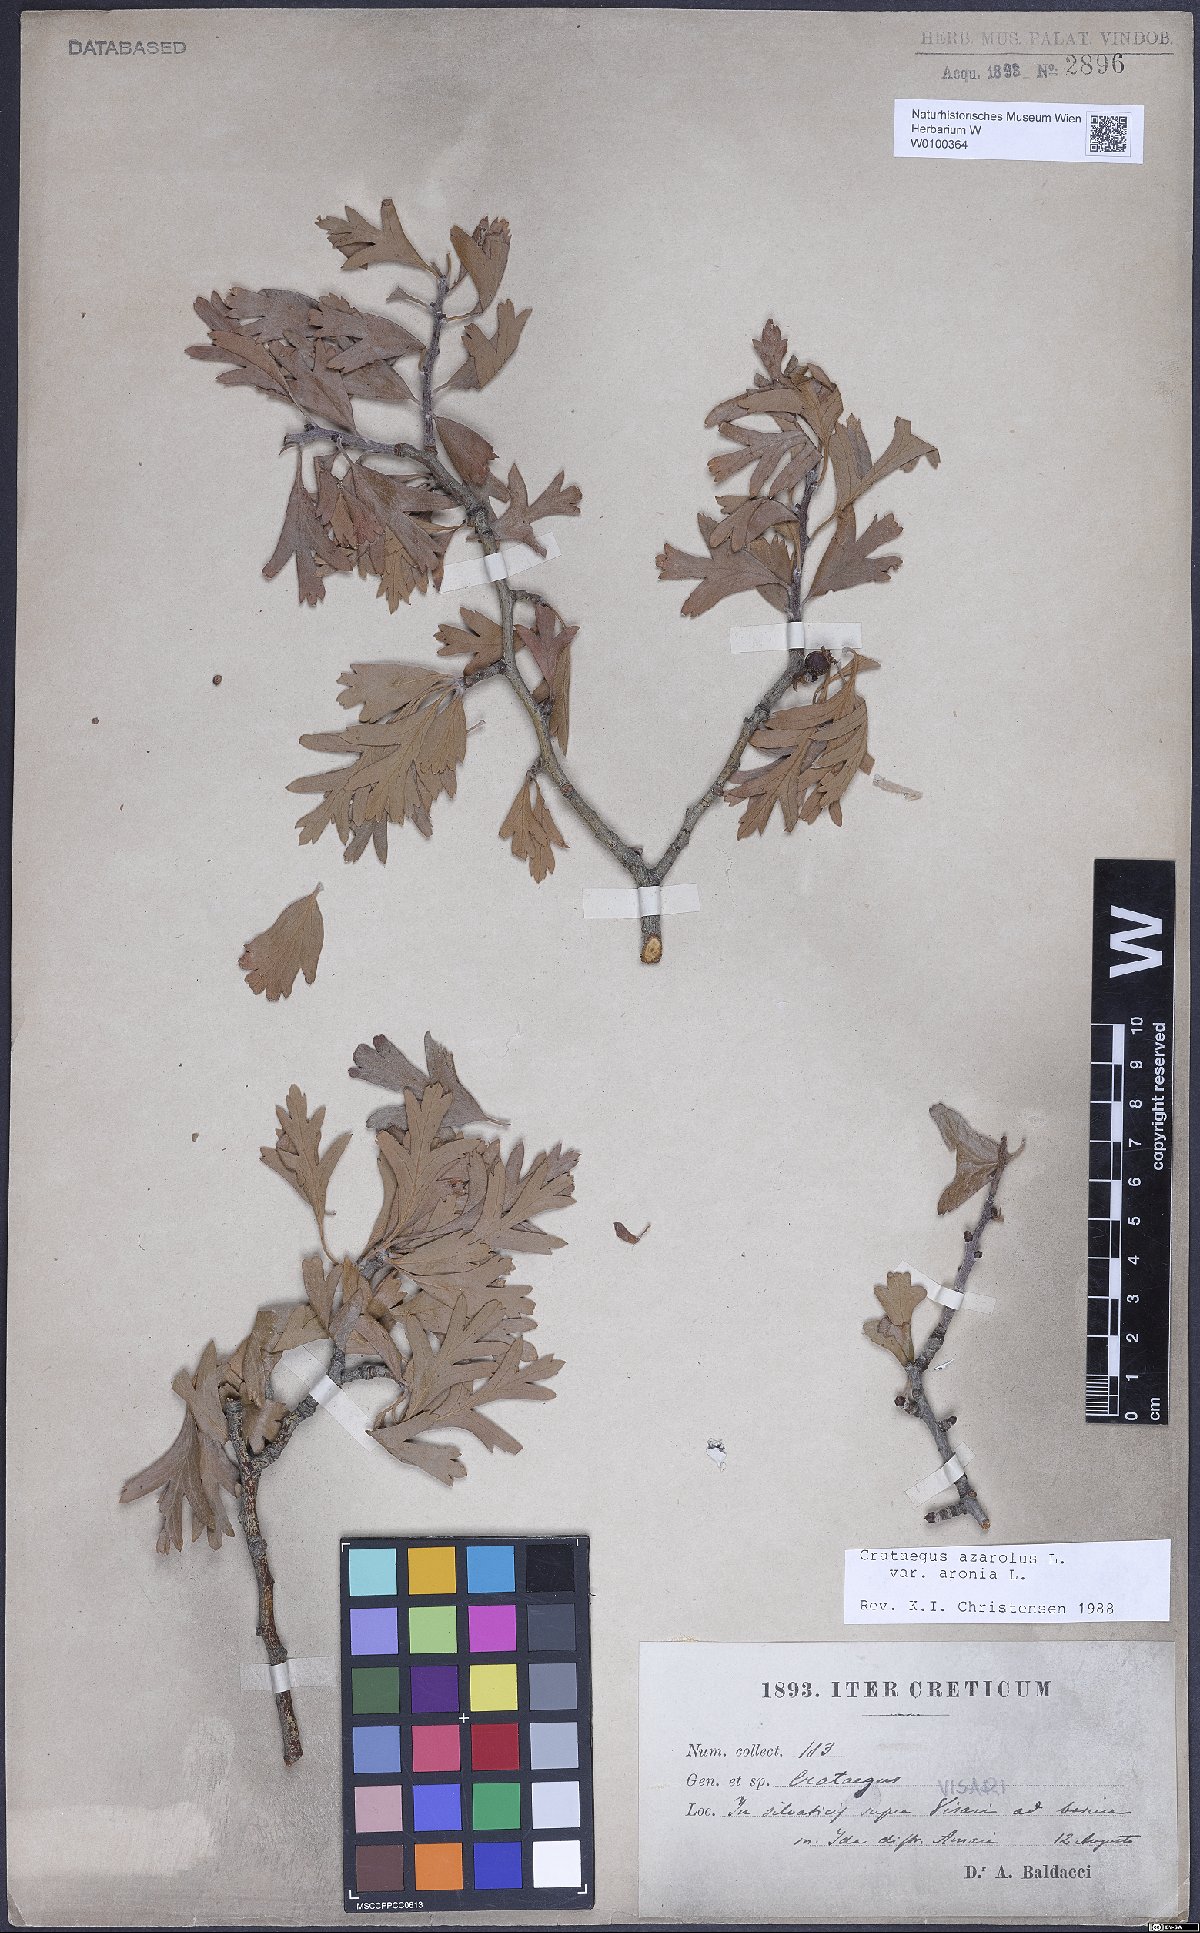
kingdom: Plantae
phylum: Tracheophyta
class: Magnoliopsida
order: Rosales
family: Rosaceae
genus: Crataegus
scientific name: Crataegus azarolus
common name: Azarole
